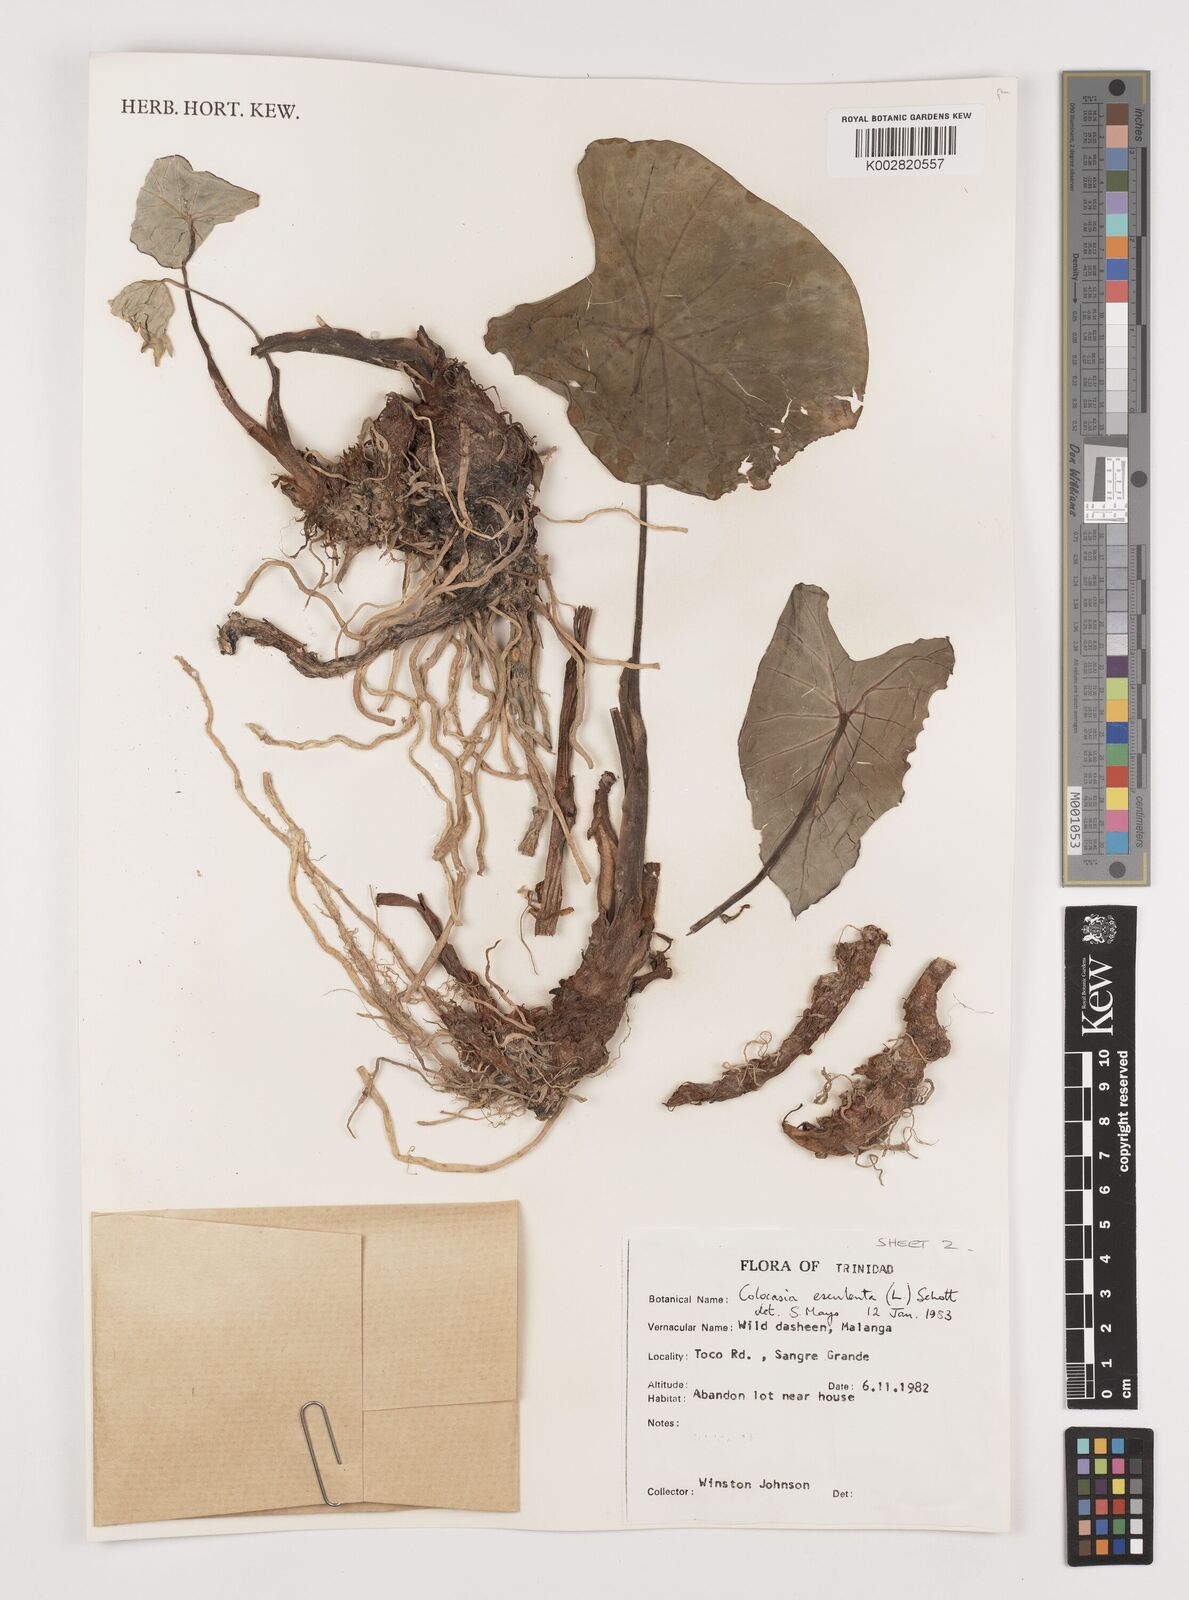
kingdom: Plantae
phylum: Tracheophyta
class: Liliopsida
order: Alismatales
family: Araceae
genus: Colocasia
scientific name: Colocasia esculenta
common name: Taro
